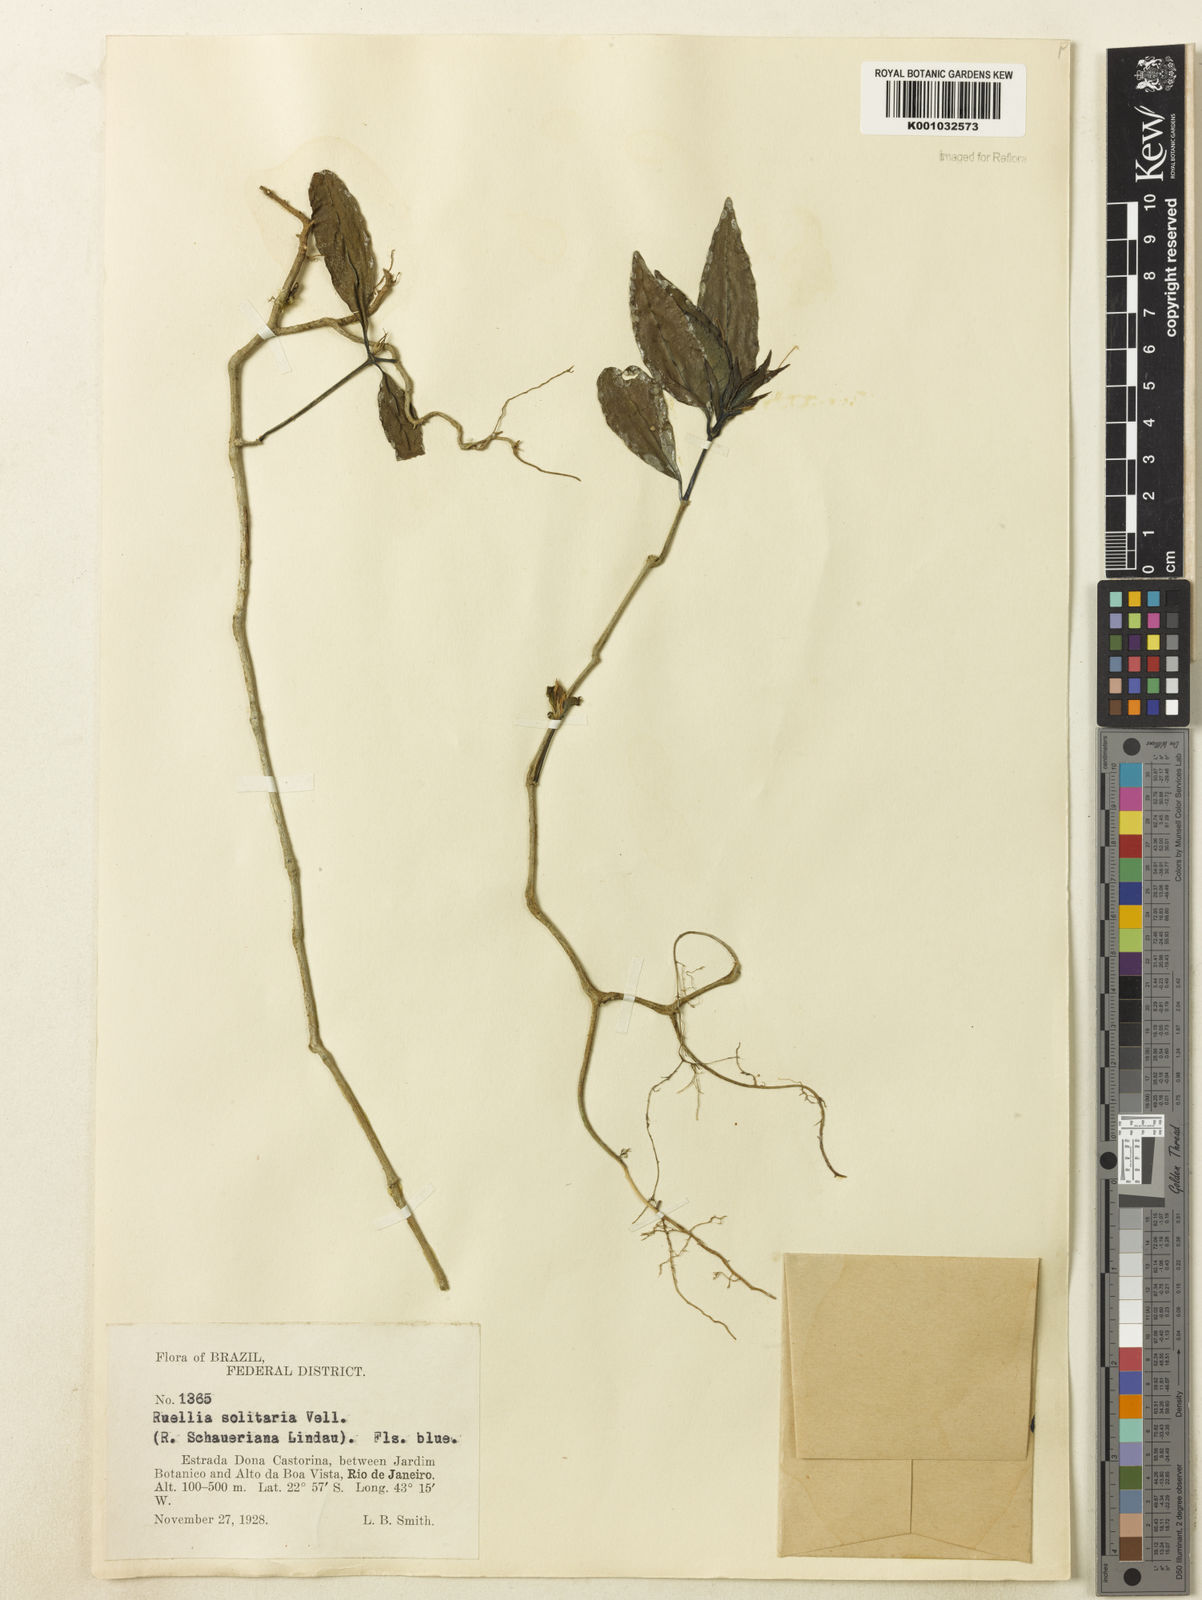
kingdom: Plantae
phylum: Tracheophyta
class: Magnoliopsida
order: Lamiales
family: Acanthaceae
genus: Ruellia
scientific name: Ruellia solitaria
